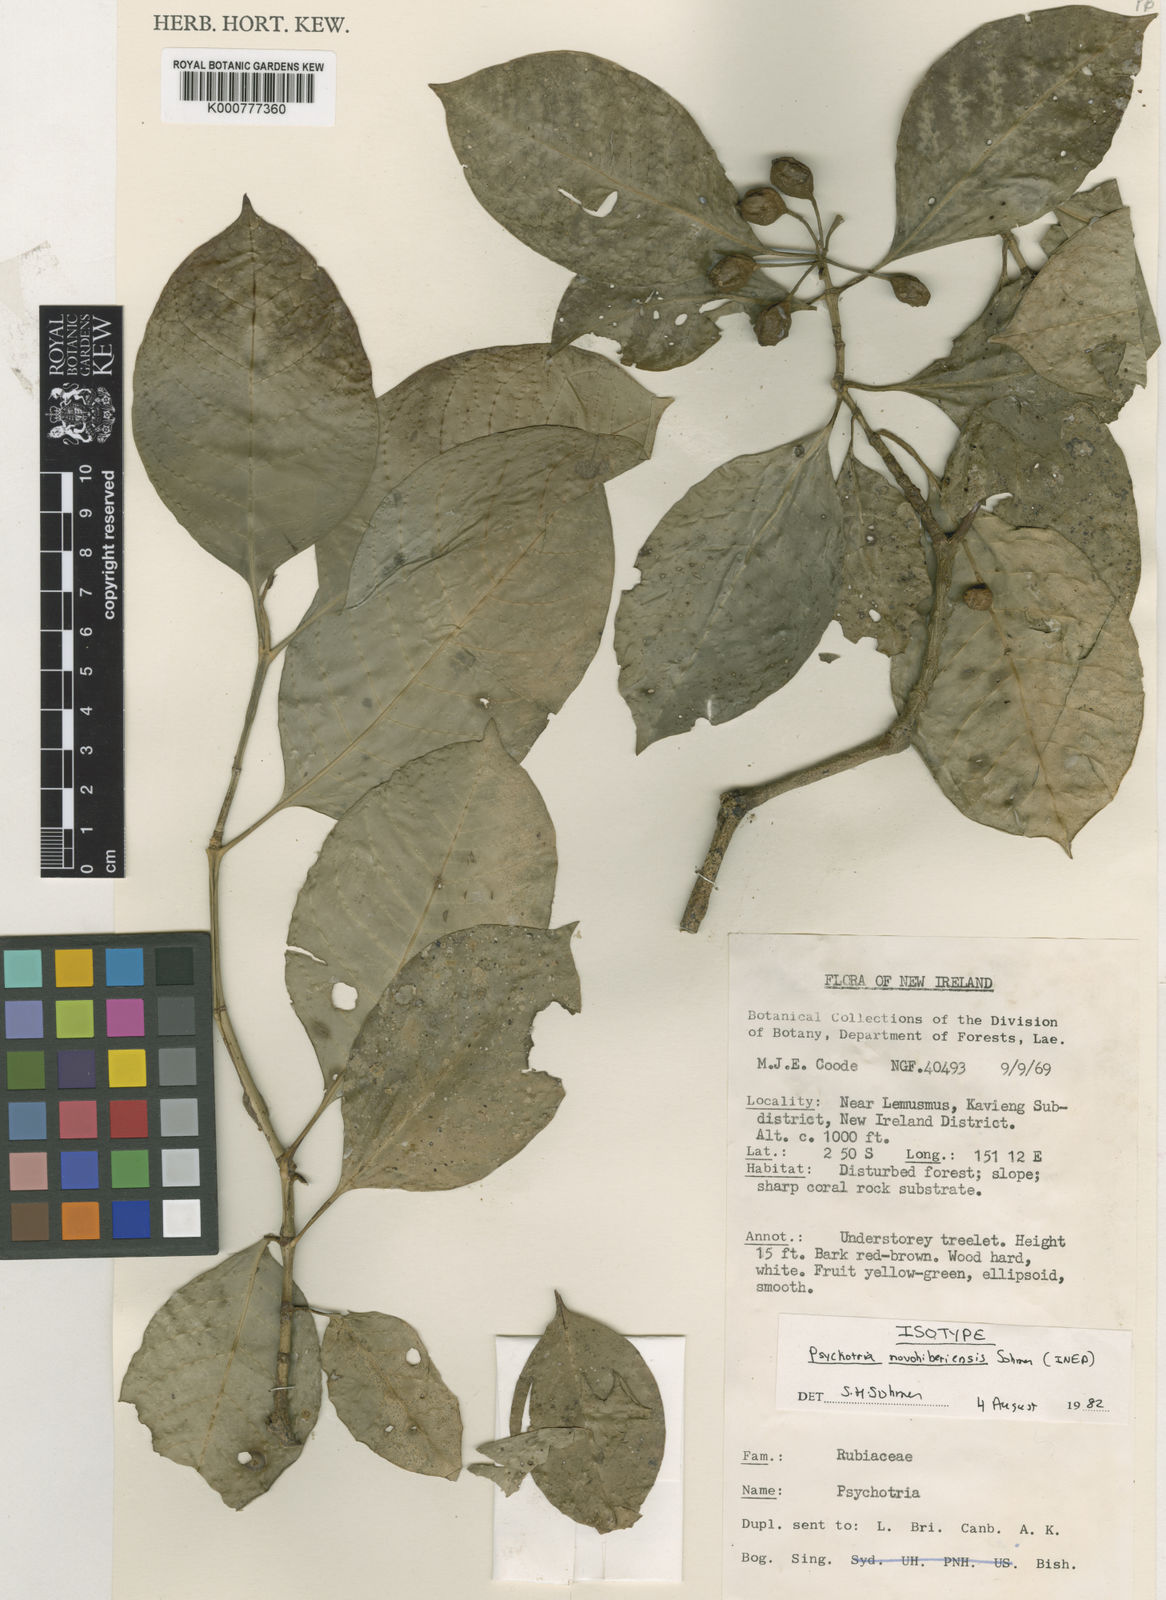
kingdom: Plantae
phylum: Tracheophyta
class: Magnoliopsida
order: Gentianales
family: Rubiaceae
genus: Eumachia
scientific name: Eumachia novohiberiensis
